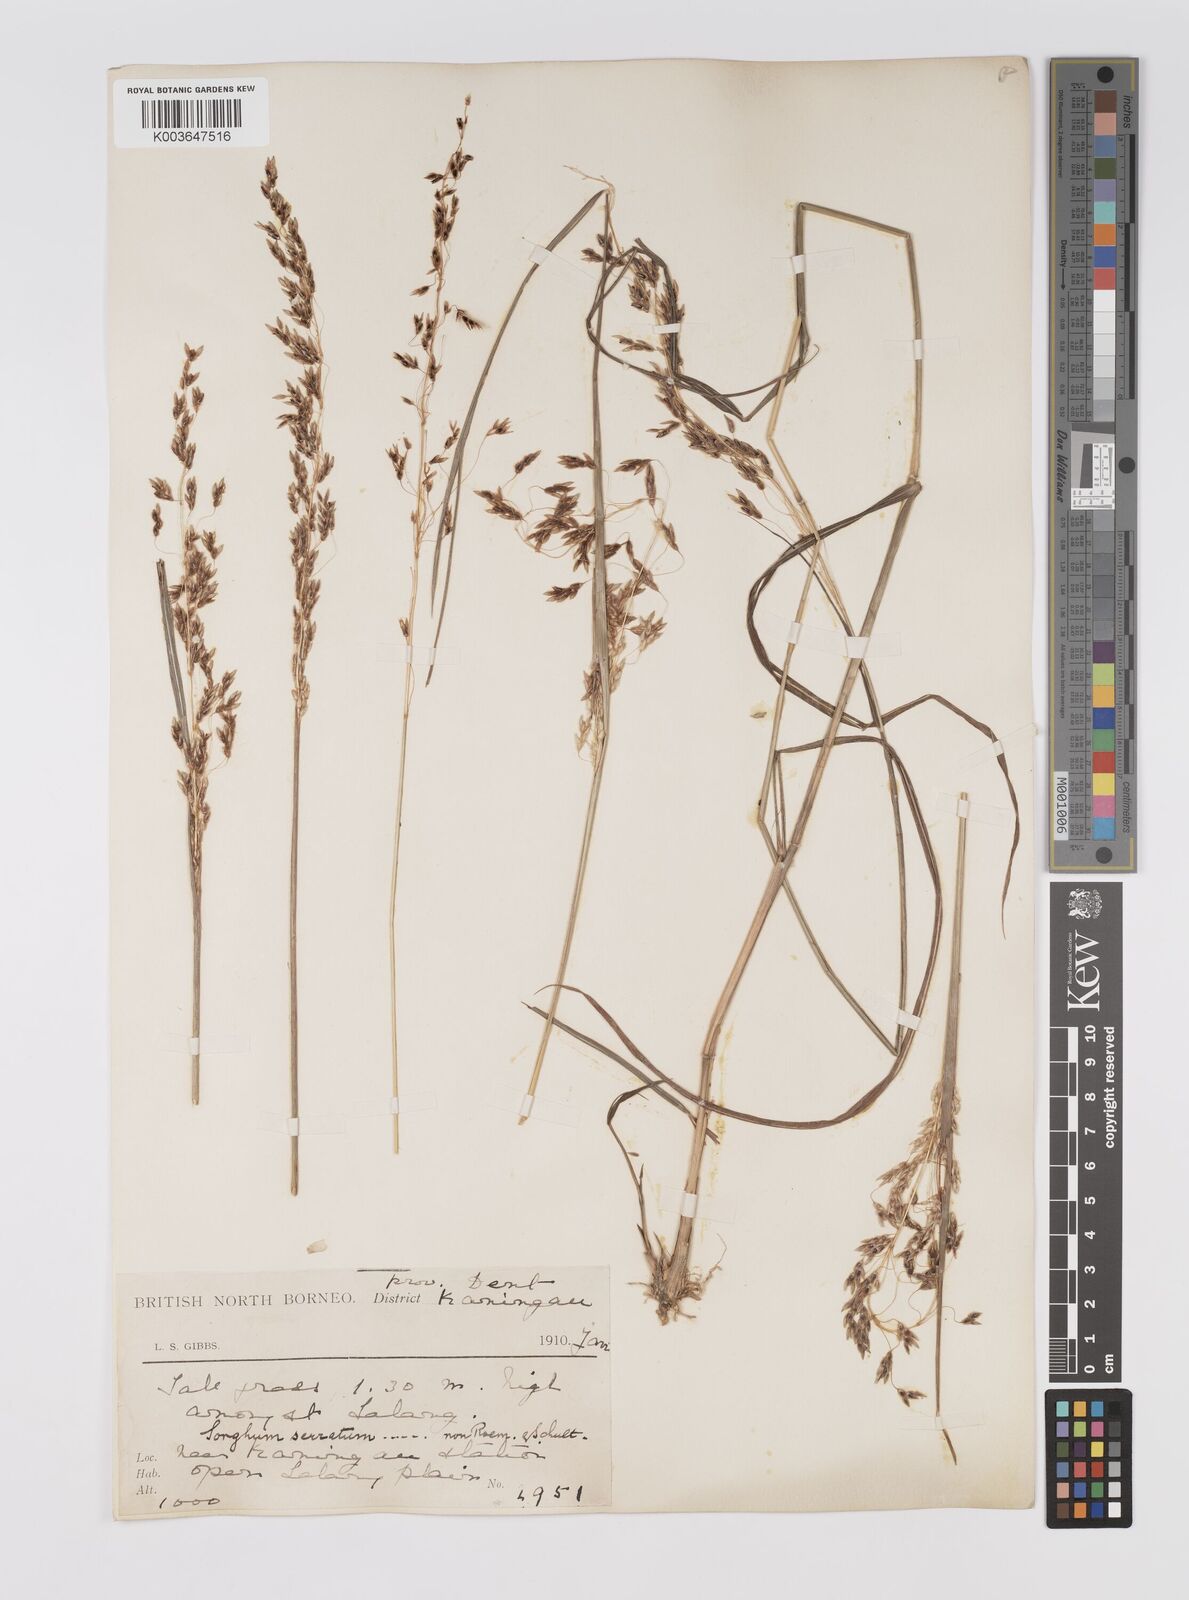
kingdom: Plantae
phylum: Tracheophyta
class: Liliopsida
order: Poales
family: Poaceae
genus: Sorghum
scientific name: Sorghum nitidum
